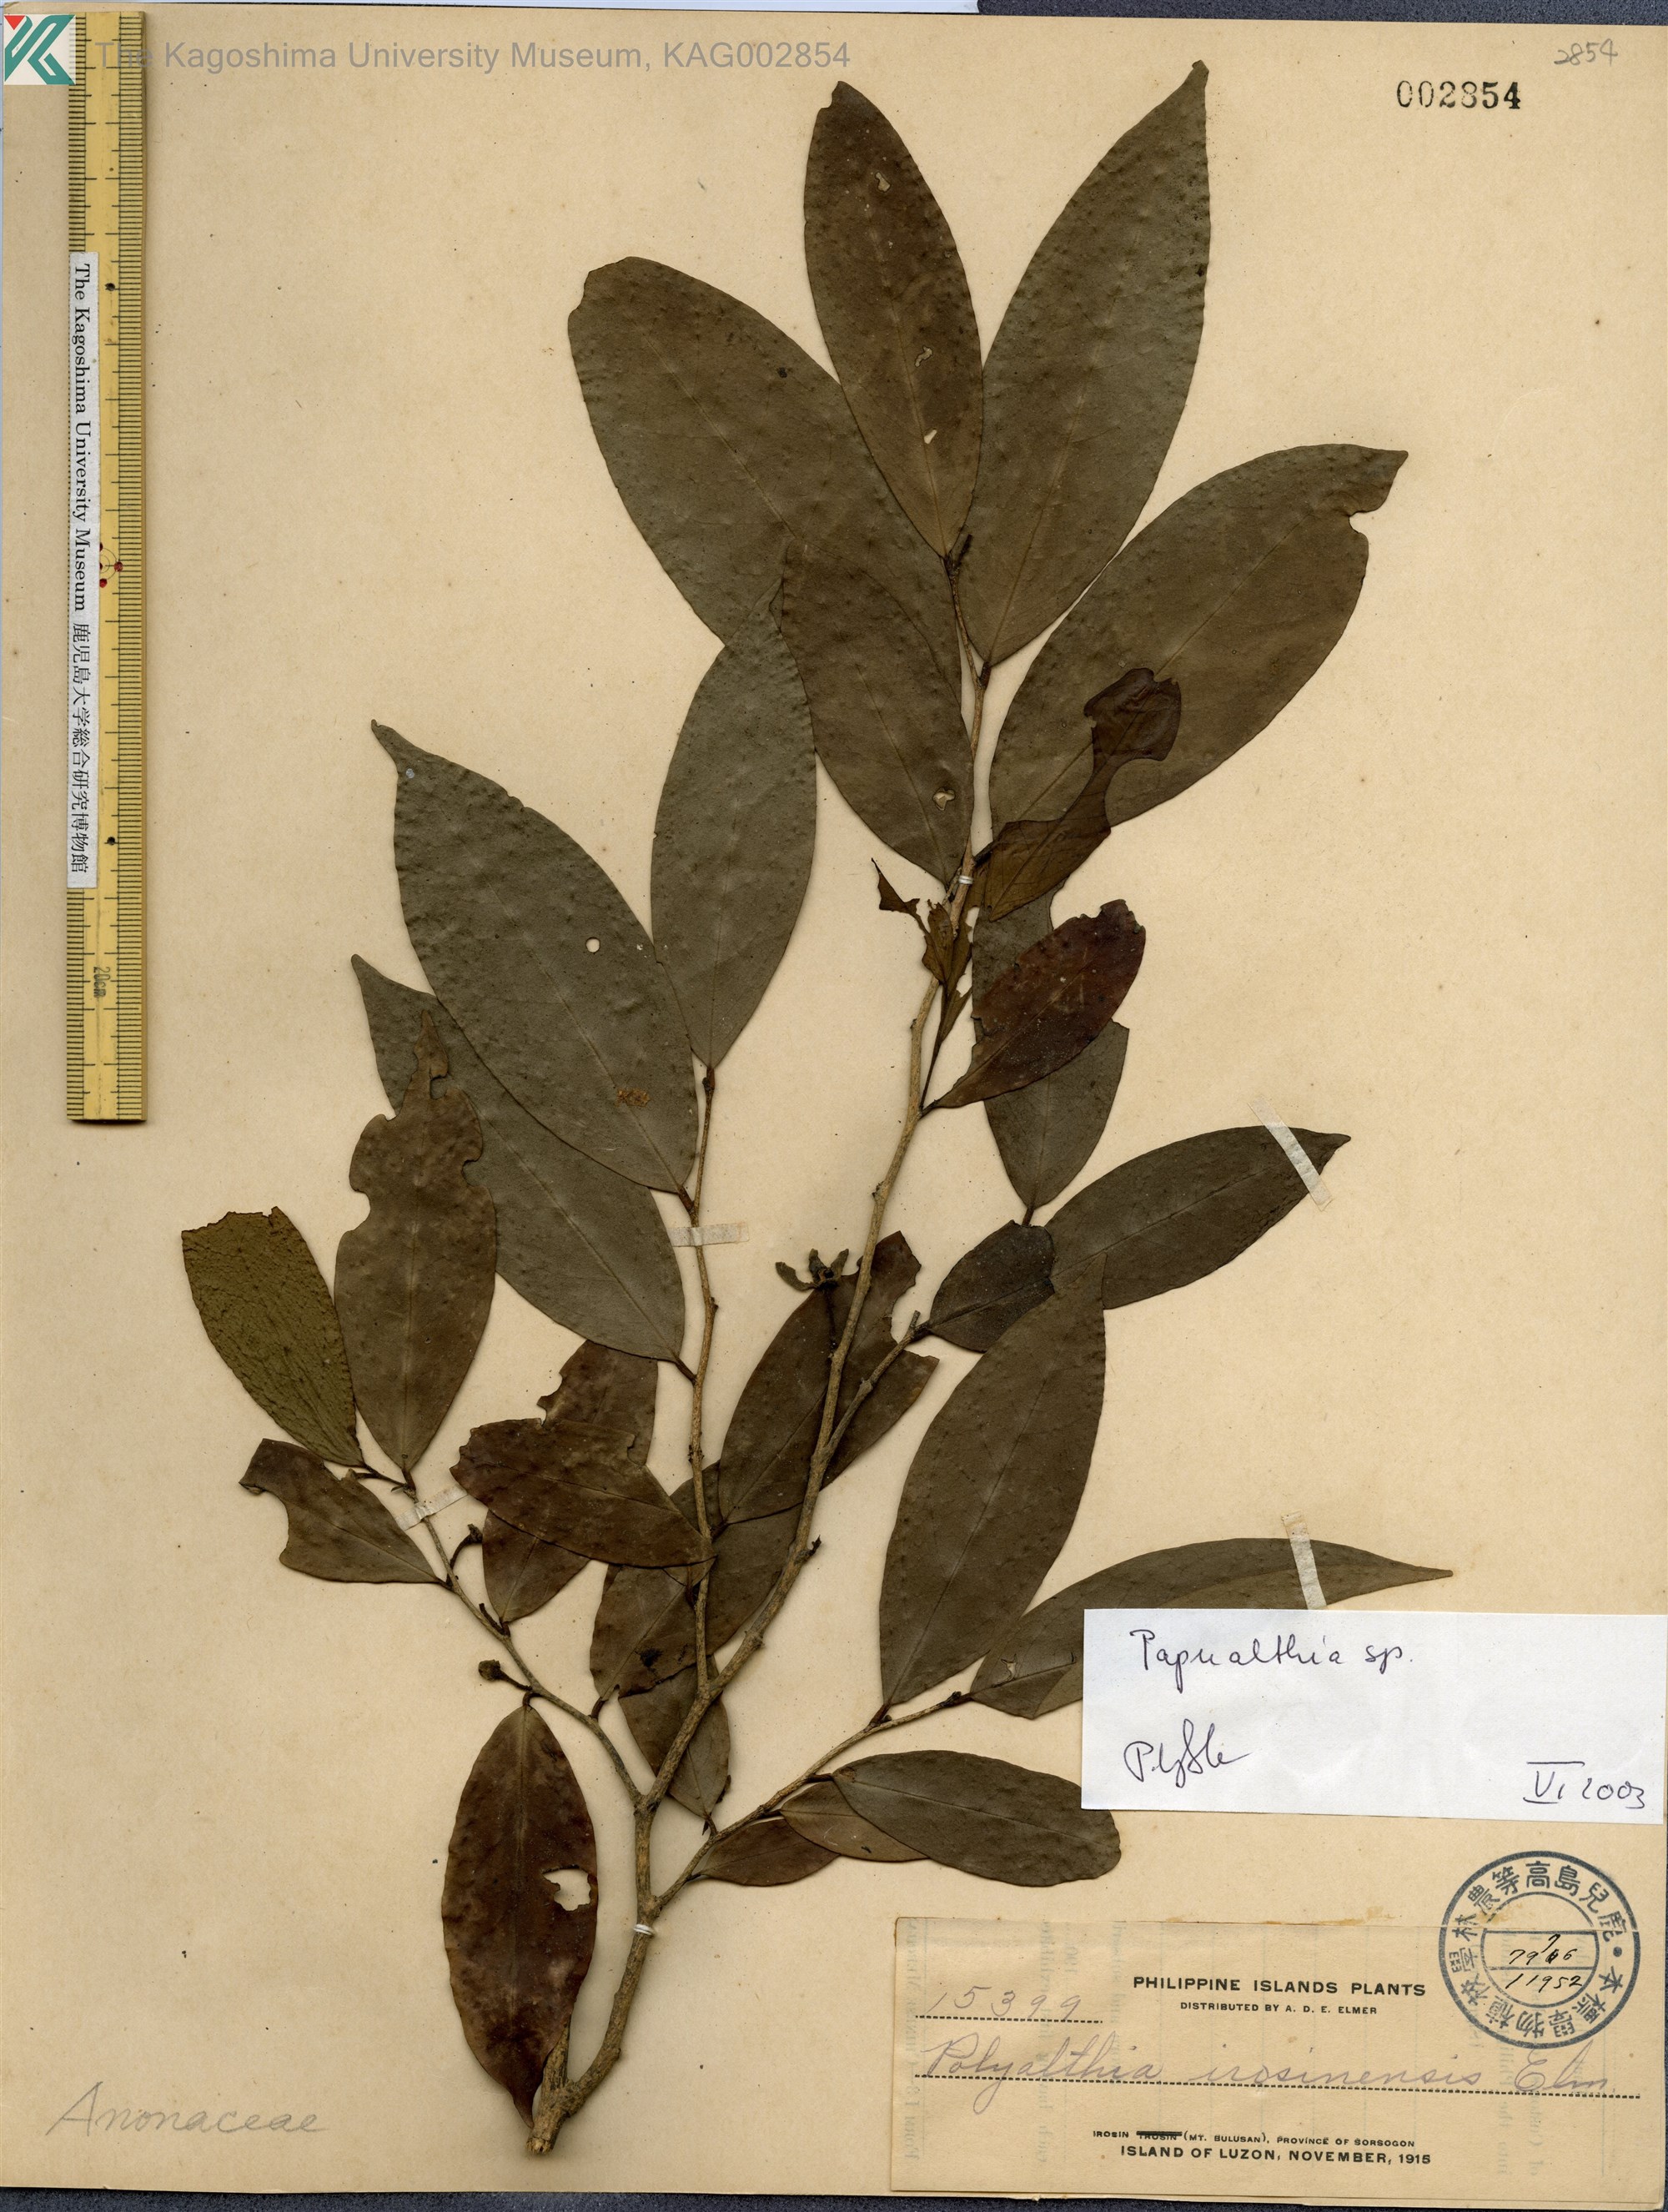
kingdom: Plantae
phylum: Tracheophyta
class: Magnoliopsida
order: Magnoliales
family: Annonaceae
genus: Papualthia
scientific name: Papualthia
